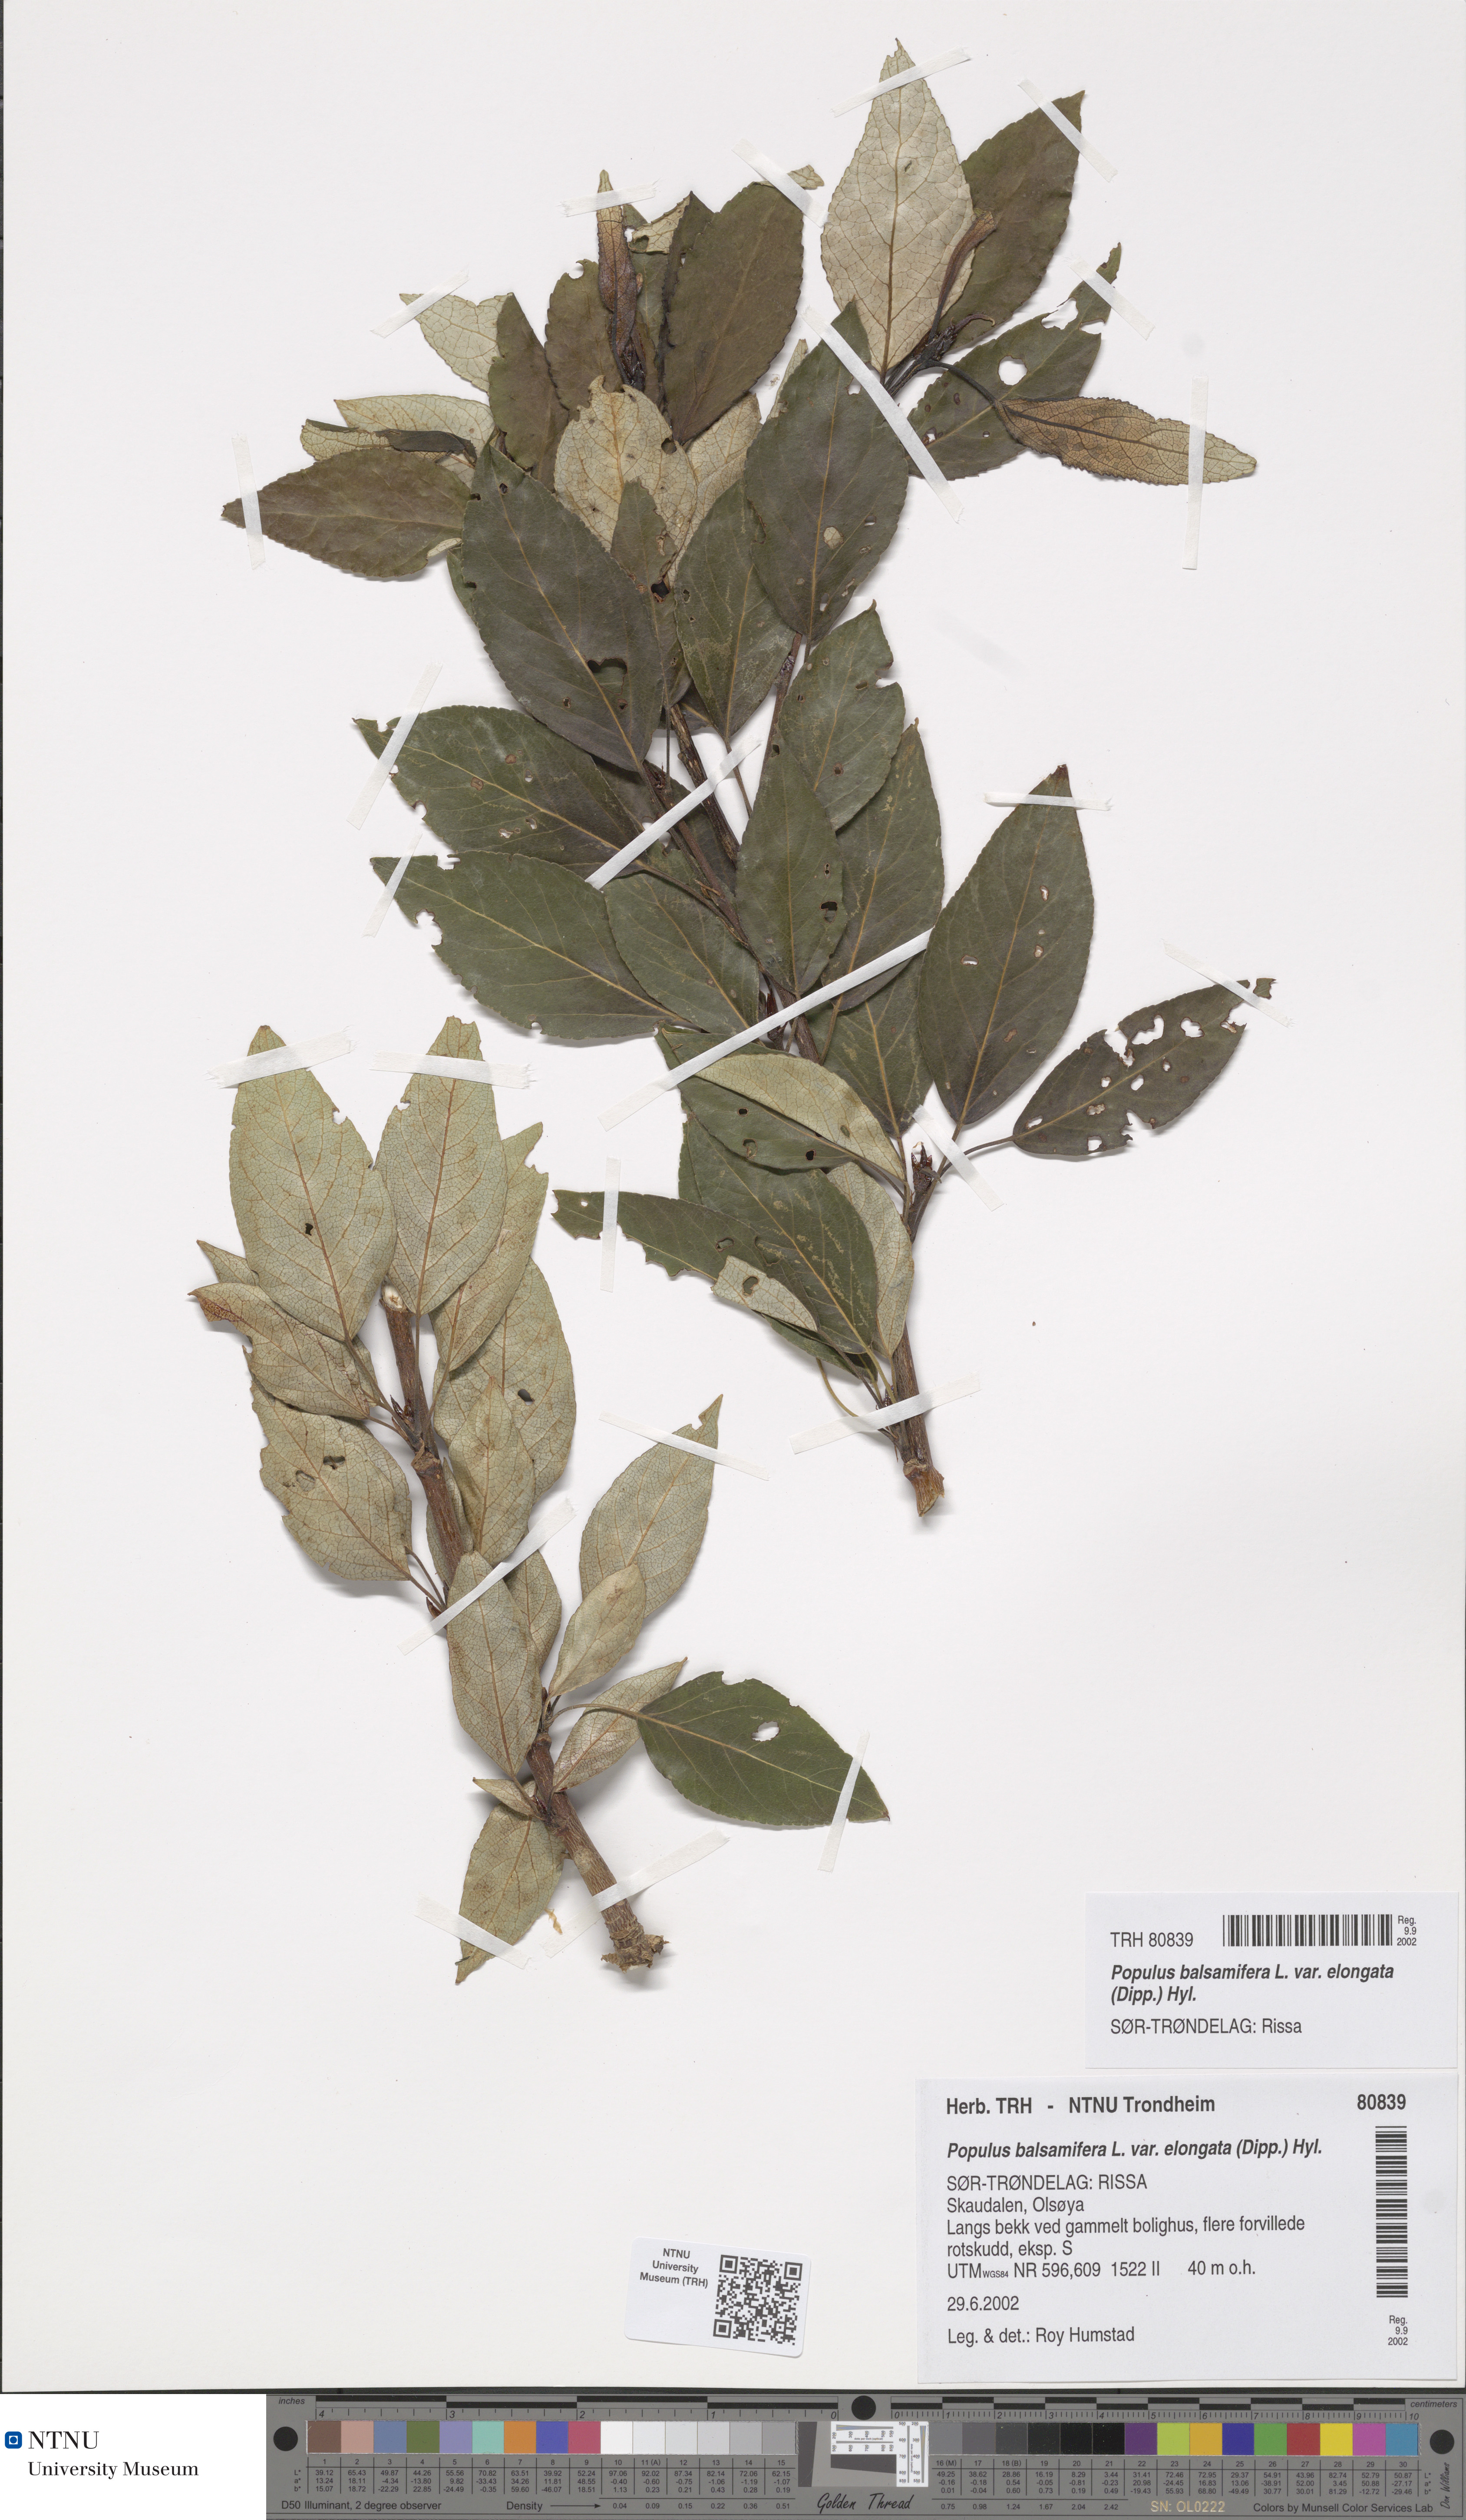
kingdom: Plantae
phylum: Tracheophyta
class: Magnoliopsida
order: Malpighiales
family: Salicaceae
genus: Populus
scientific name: Populus balsamifera
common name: Balsam poplar
